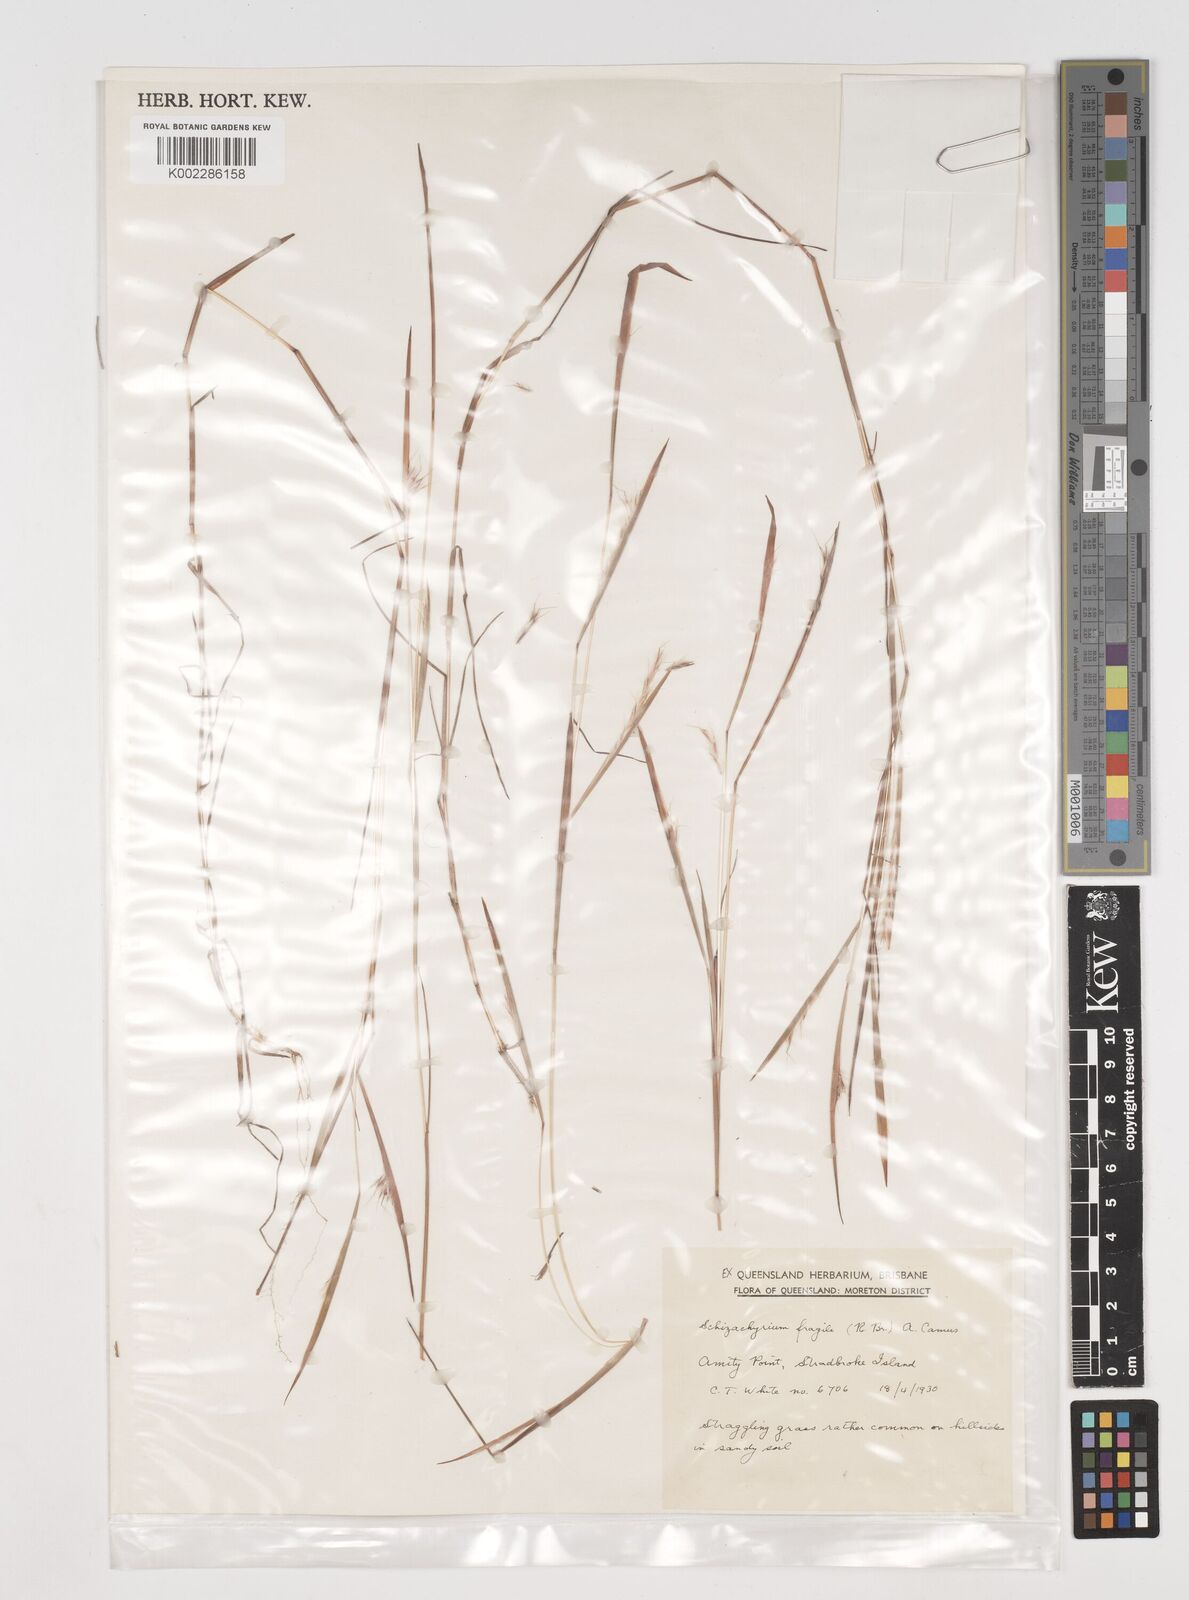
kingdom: Plantae
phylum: Tracheophyta
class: Liliopsida
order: Poales
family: Poaceae
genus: Schizachyrium
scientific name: Schizachyrium fragile
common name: Red spathe grass
